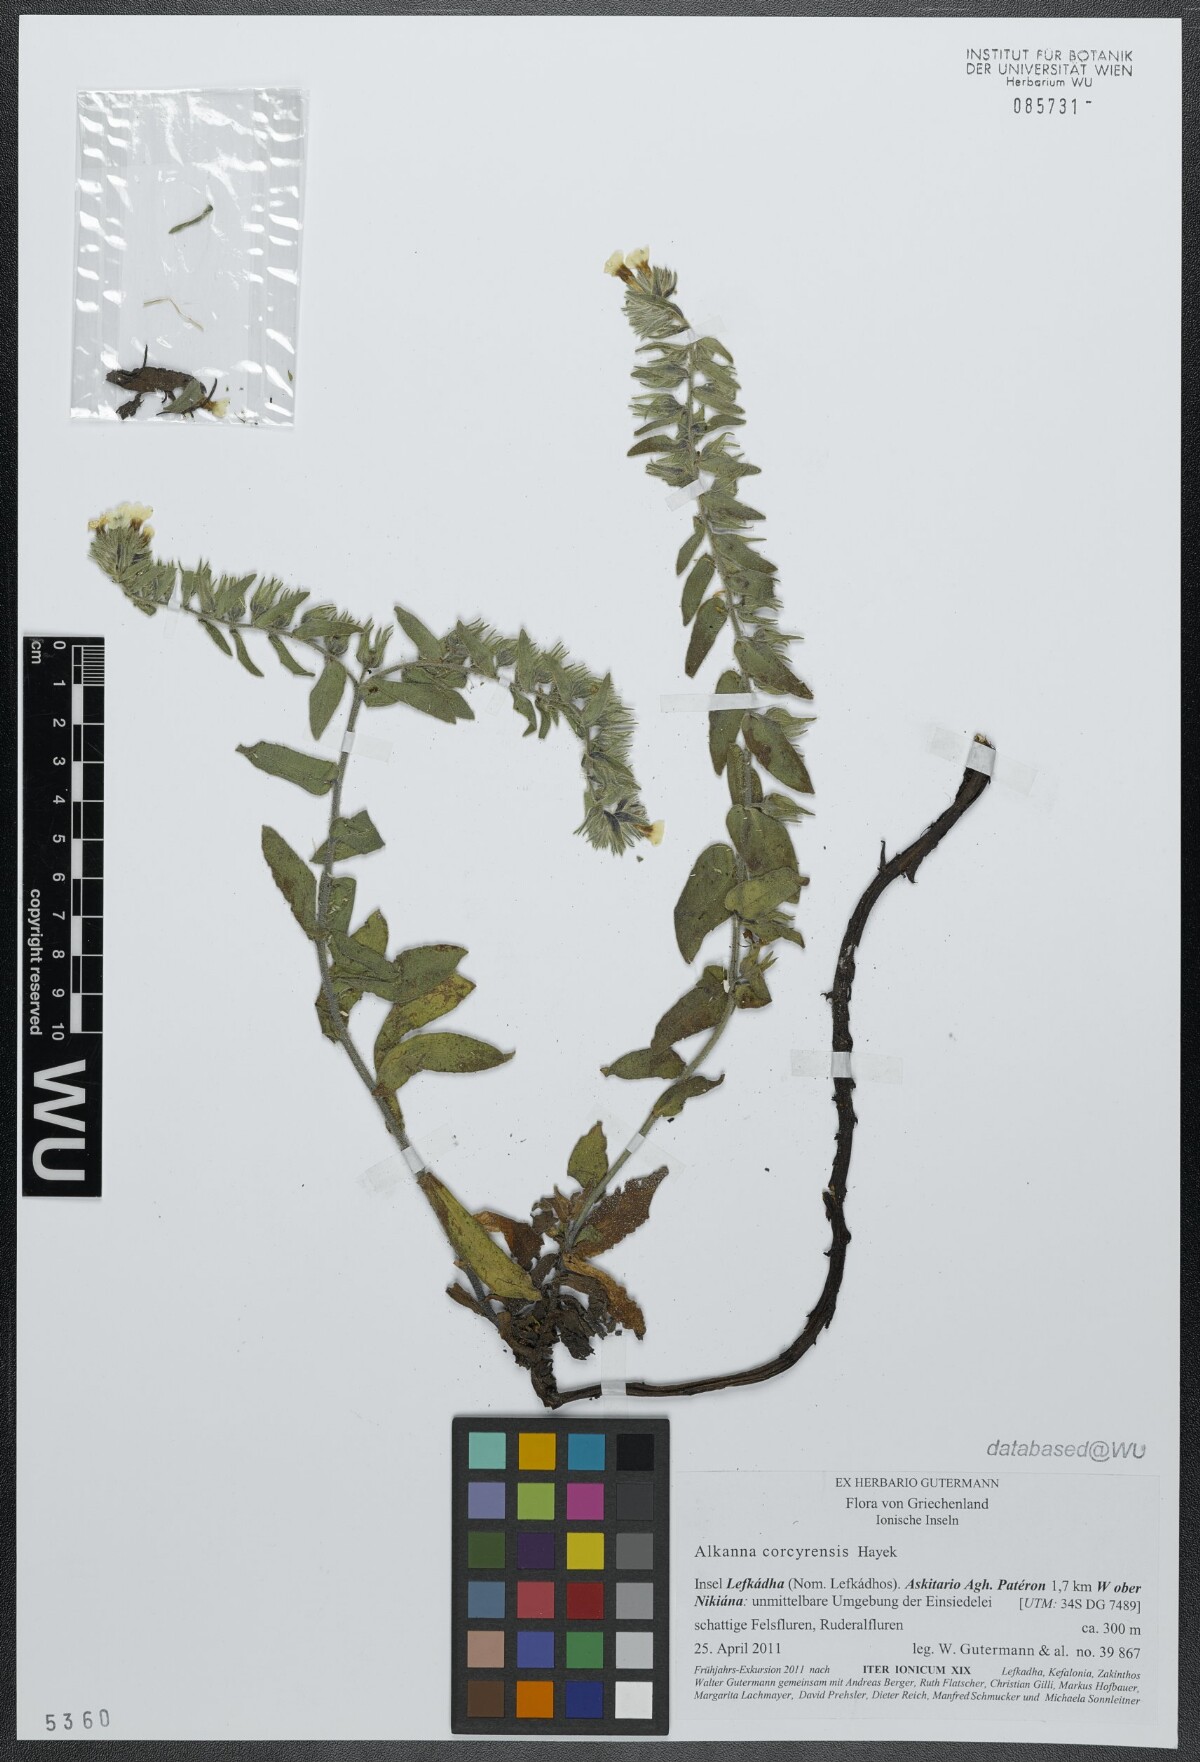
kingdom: Plantae
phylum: Tracheophyta
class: Magnoliopsida
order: Boraginales
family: Boraginaceae
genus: Alkanna
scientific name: Alkanna corcyrensis
